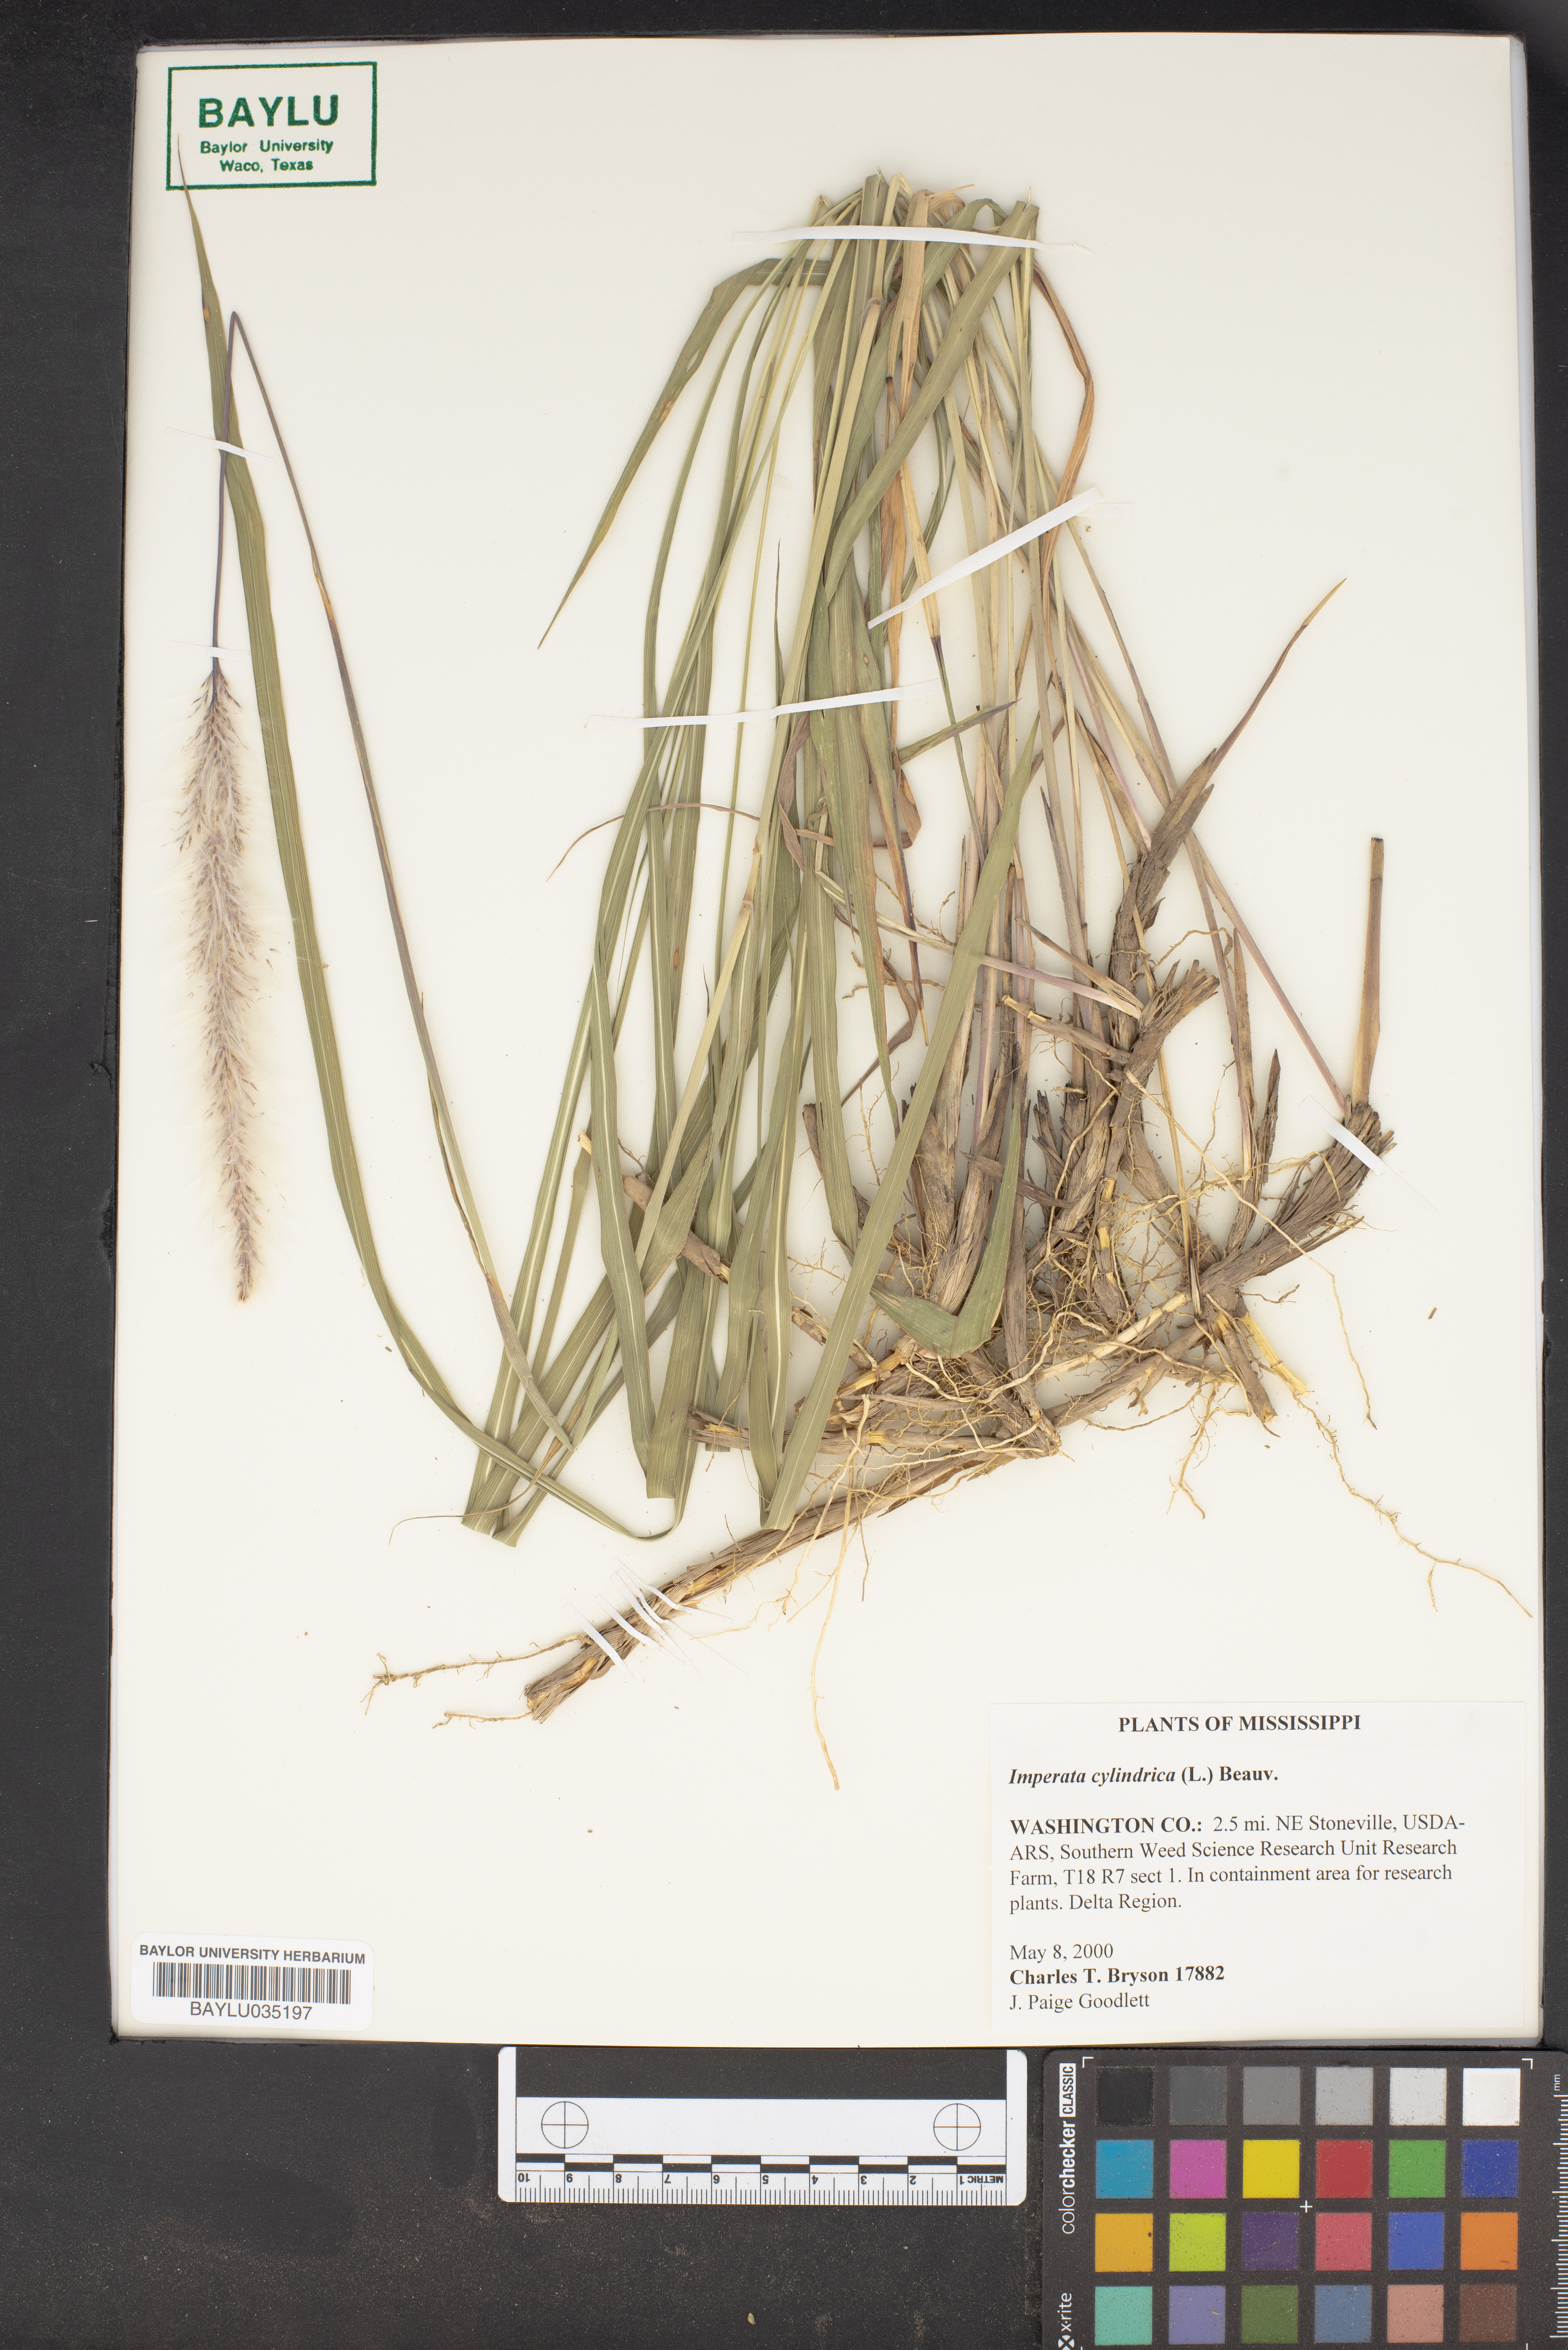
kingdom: Plantae
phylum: Tracheophyta
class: Liliopsida
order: Poales
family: Poaceae
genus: Imperata
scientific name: Imperata cylindrica
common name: Cogongrass
